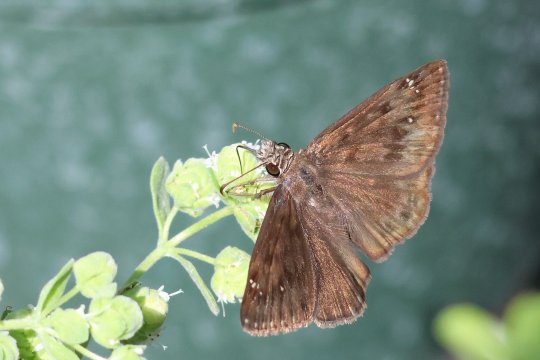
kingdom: Animalia
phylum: Arthropoda
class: Insecta
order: Lepidoptera
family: Hesperiidae
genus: Gesta
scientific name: Gesta
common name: Horace's Duskywing
